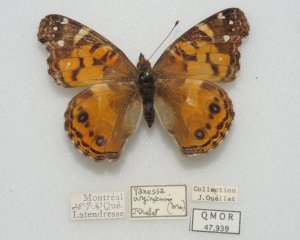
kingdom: Animalia
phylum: Arthropoda
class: Insecta
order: Lepidoptera
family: Nymphalidae
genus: Vanessa
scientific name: Vanessa virginiensis
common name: American Lady
